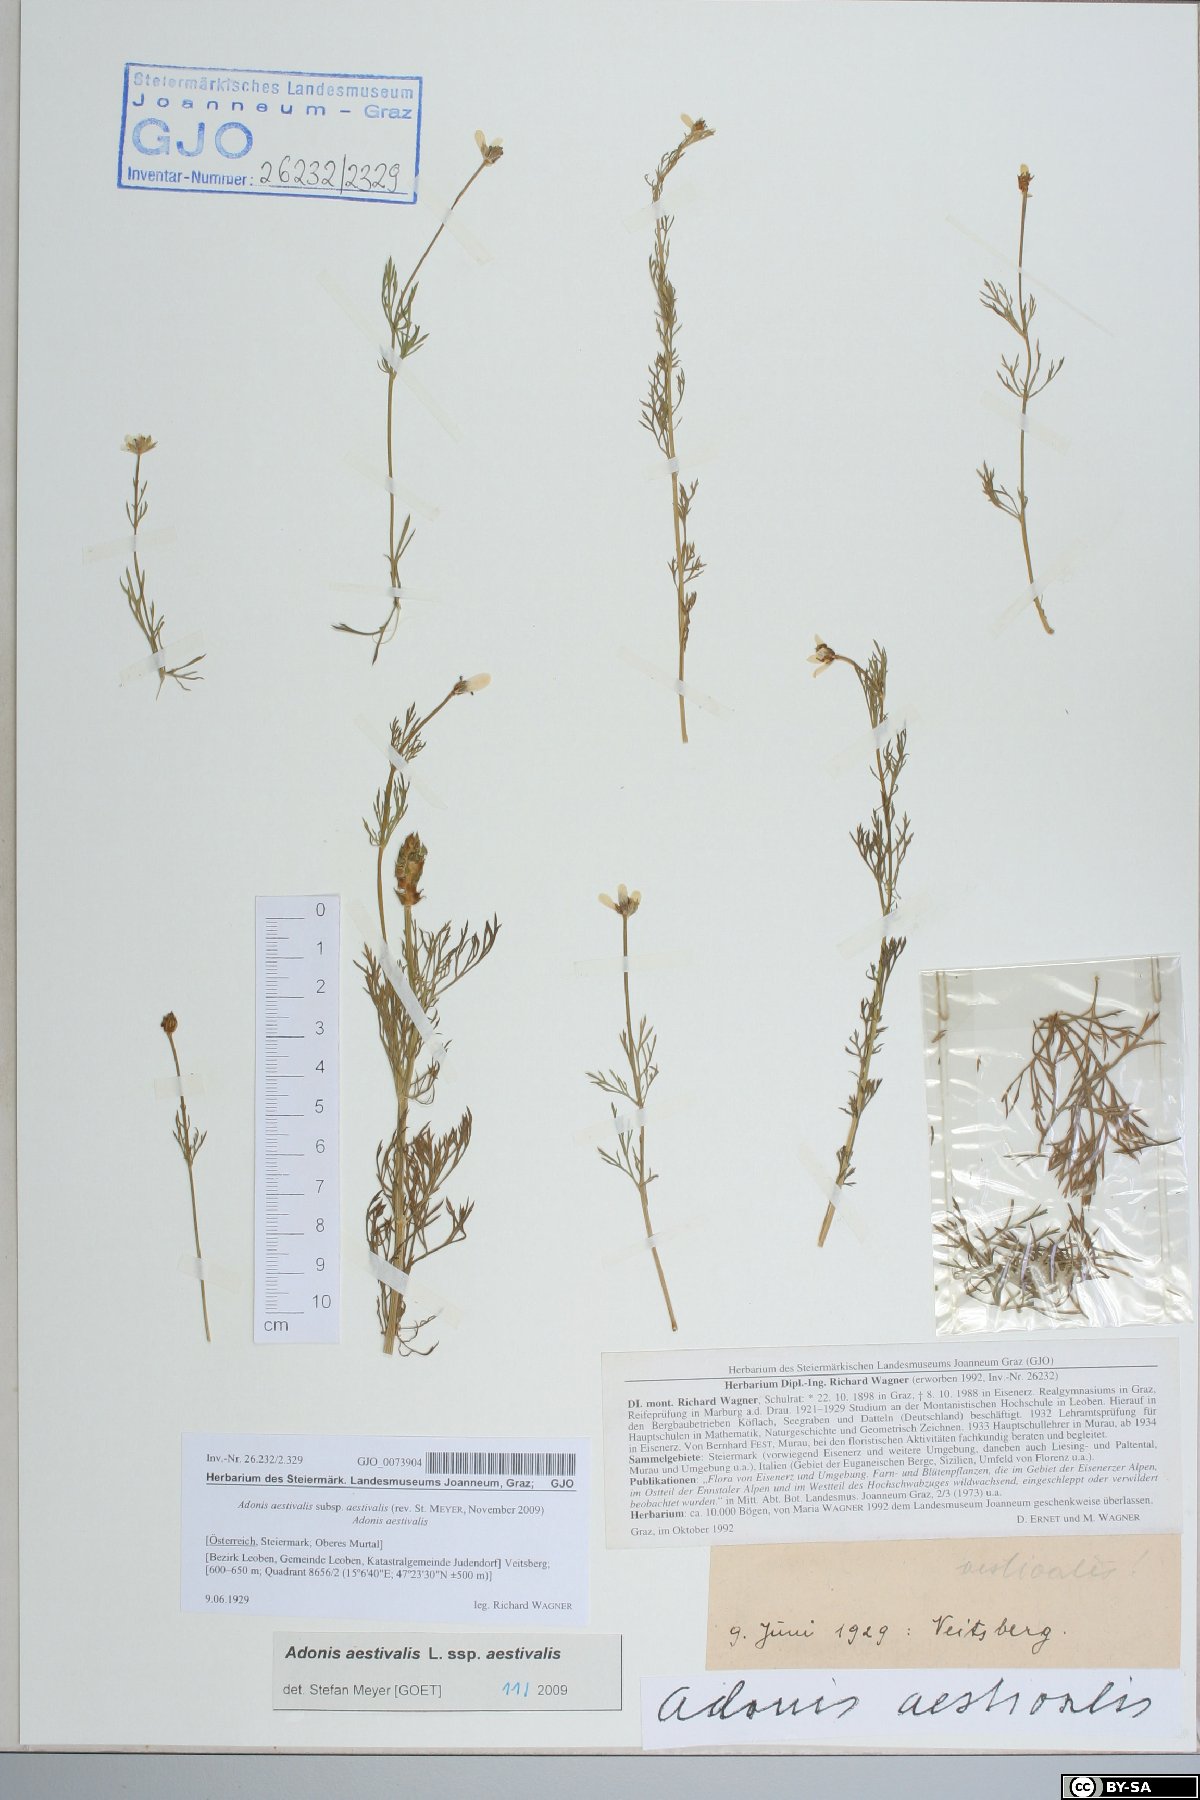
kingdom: Plantae
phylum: Tracheophyta
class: Magnoliopsida
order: Ranunculales
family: Ranunculaceae
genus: Adonis
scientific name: Adonis aestivalis
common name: Summer pheasant's-eye
